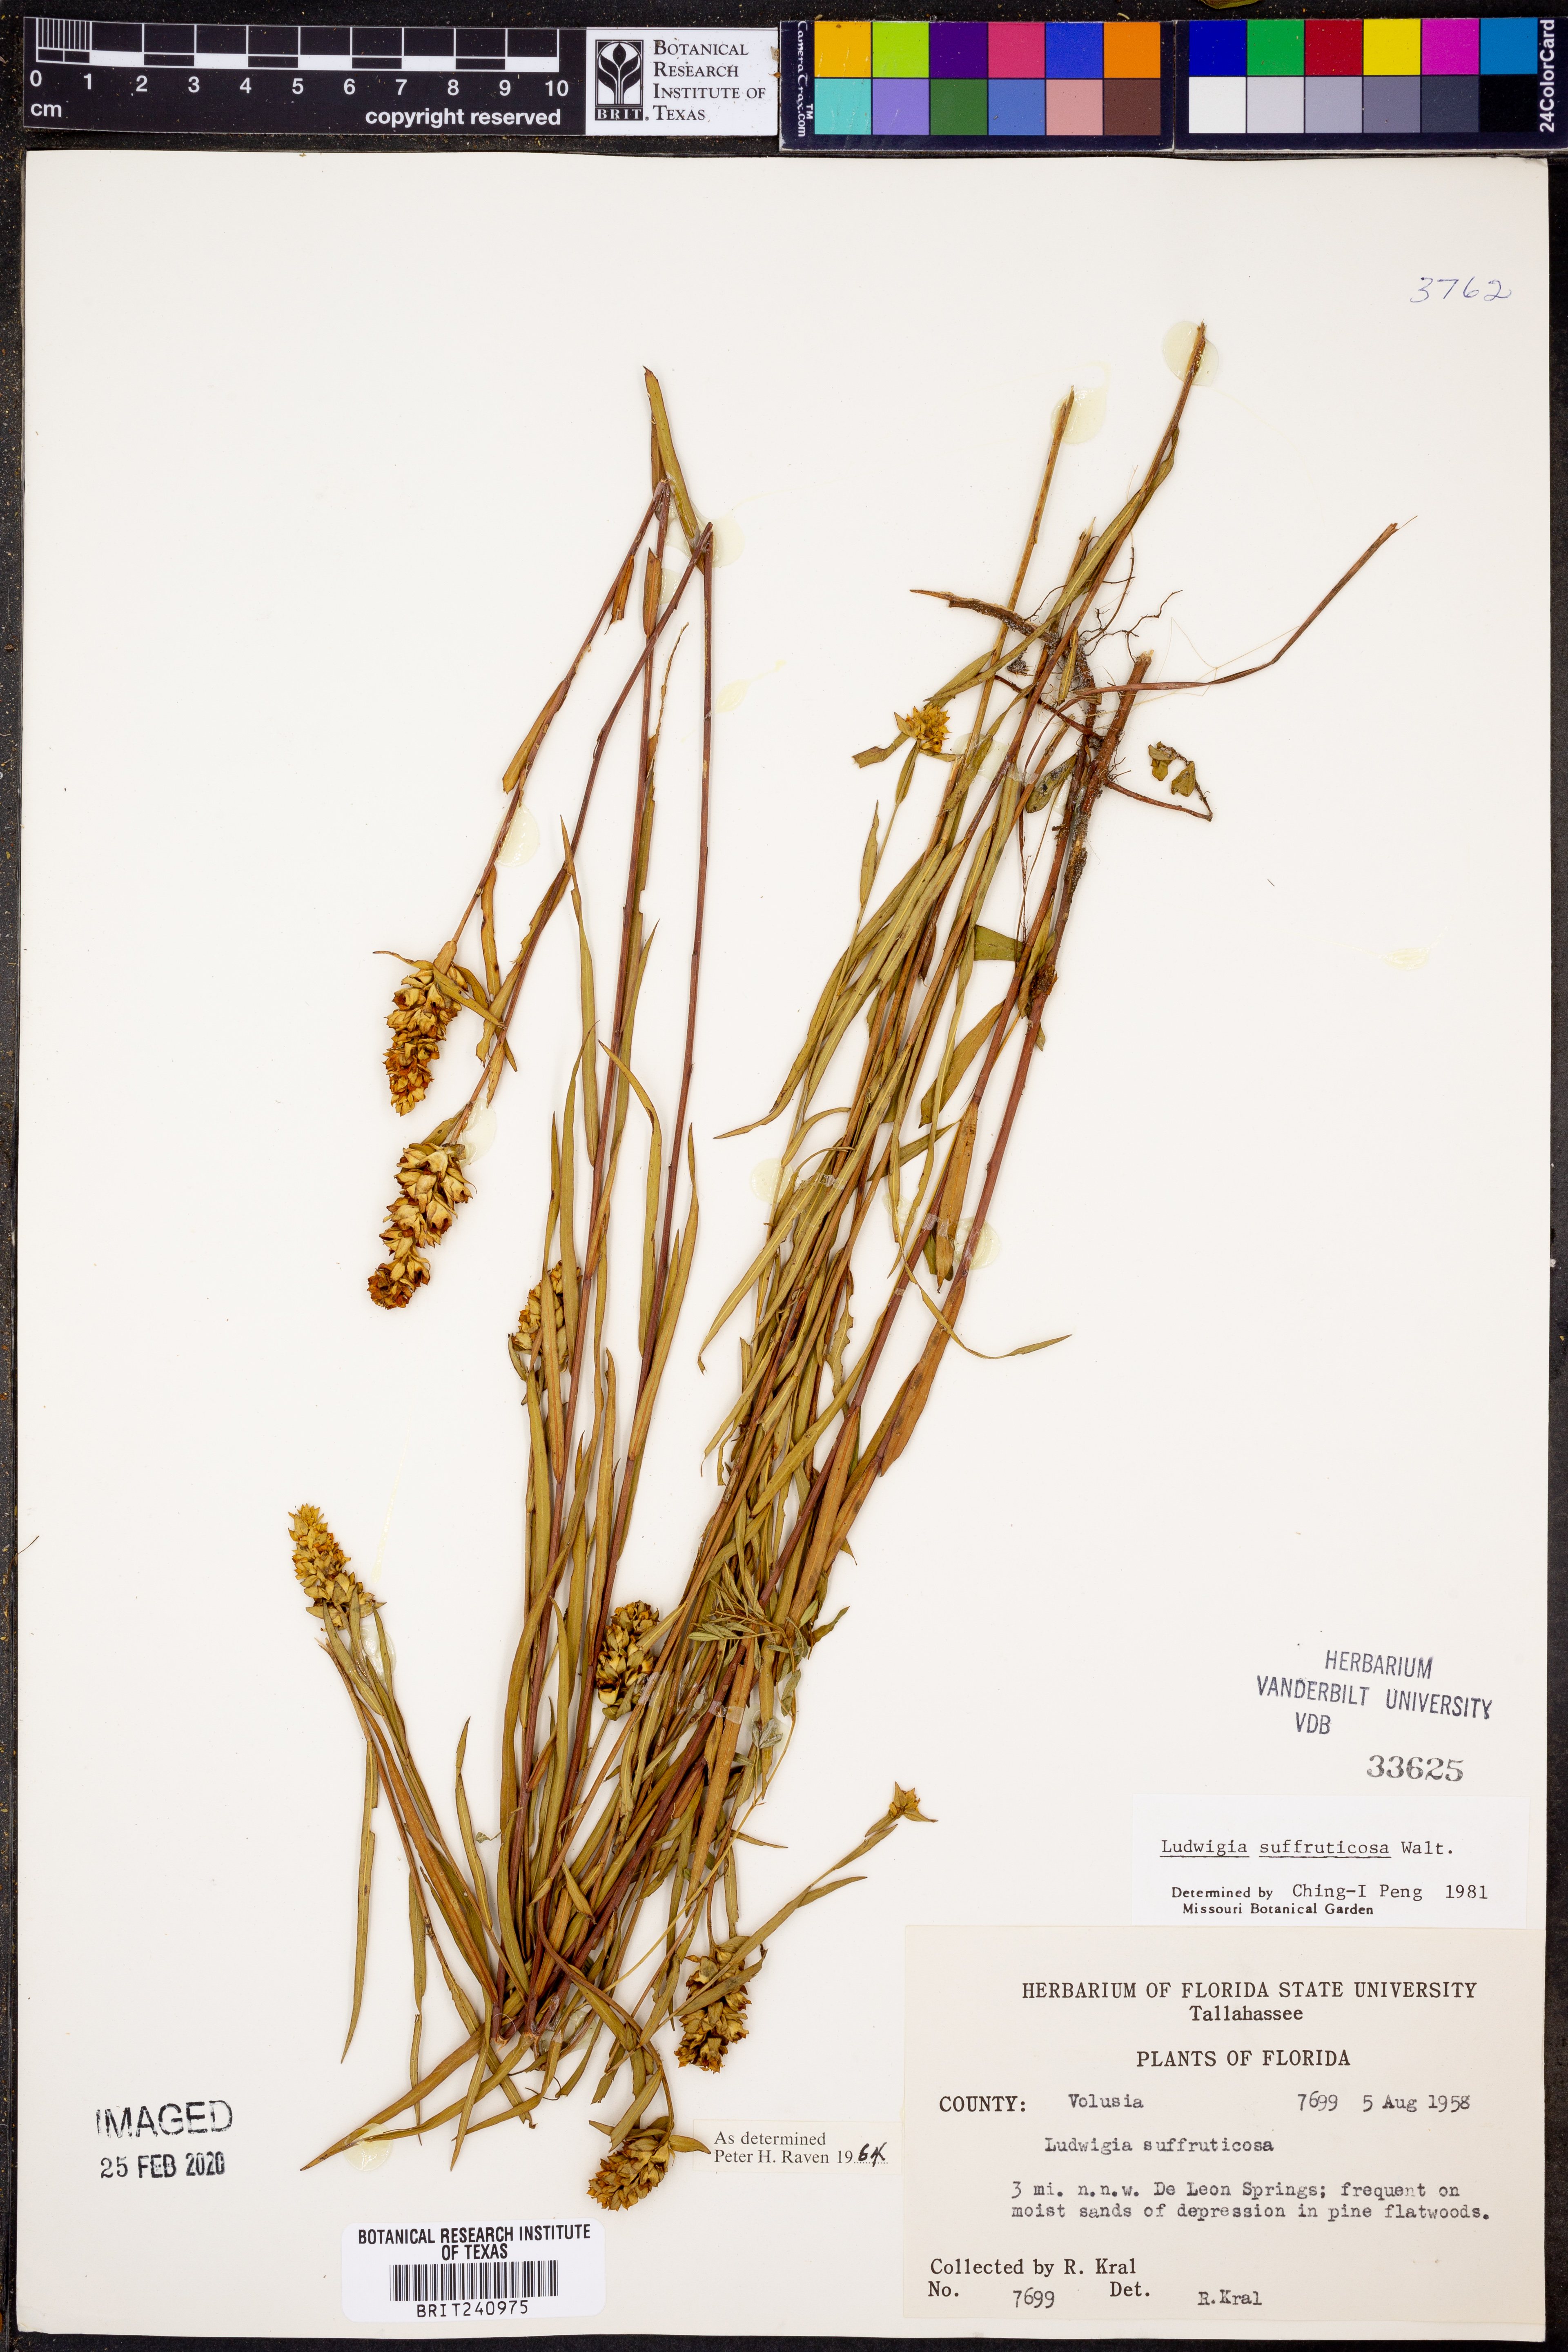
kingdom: Plantae
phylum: Tracheophyta
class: Magnoliopsida
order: Myrtales
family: Onagraceae
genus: Ludwigia
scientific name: Ludwigia suffruticosa
